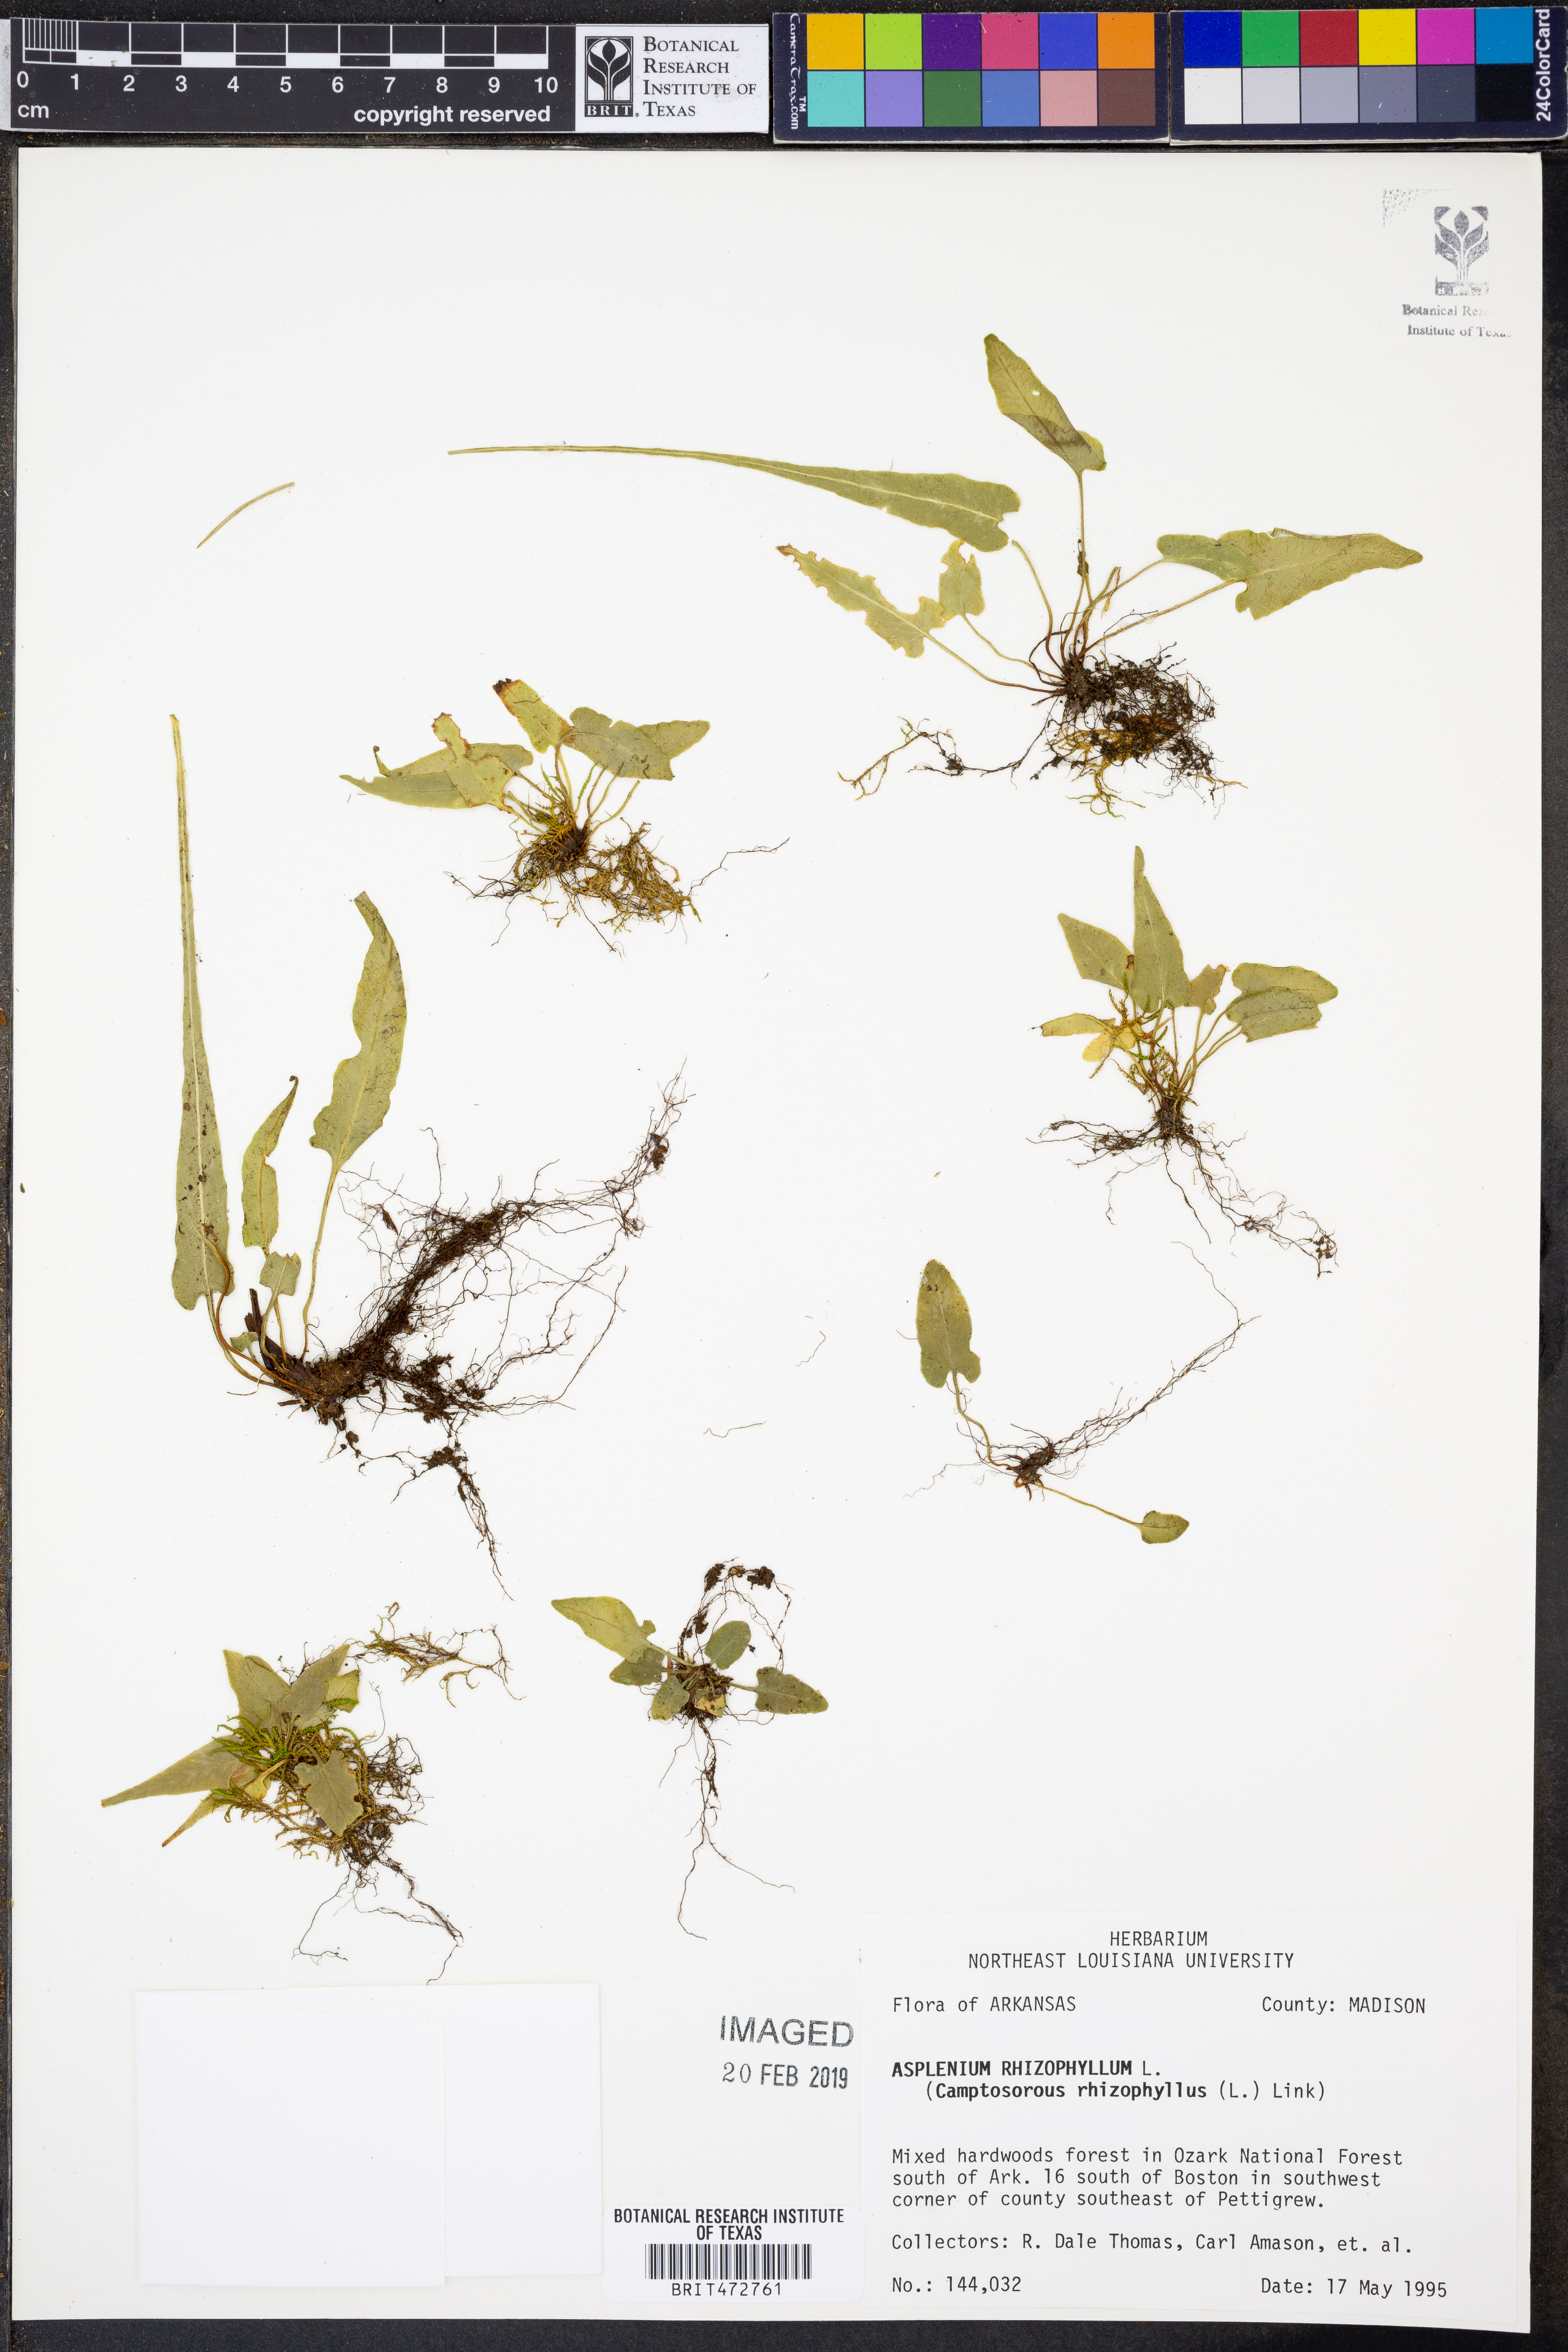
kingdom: Plantae
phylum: Tracheophyta
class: Polypodiopsida
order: Polypodiales
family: Aspleniaceae
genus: Asplenium
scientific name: Asplenium rhizophyllum
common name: Walking fern
